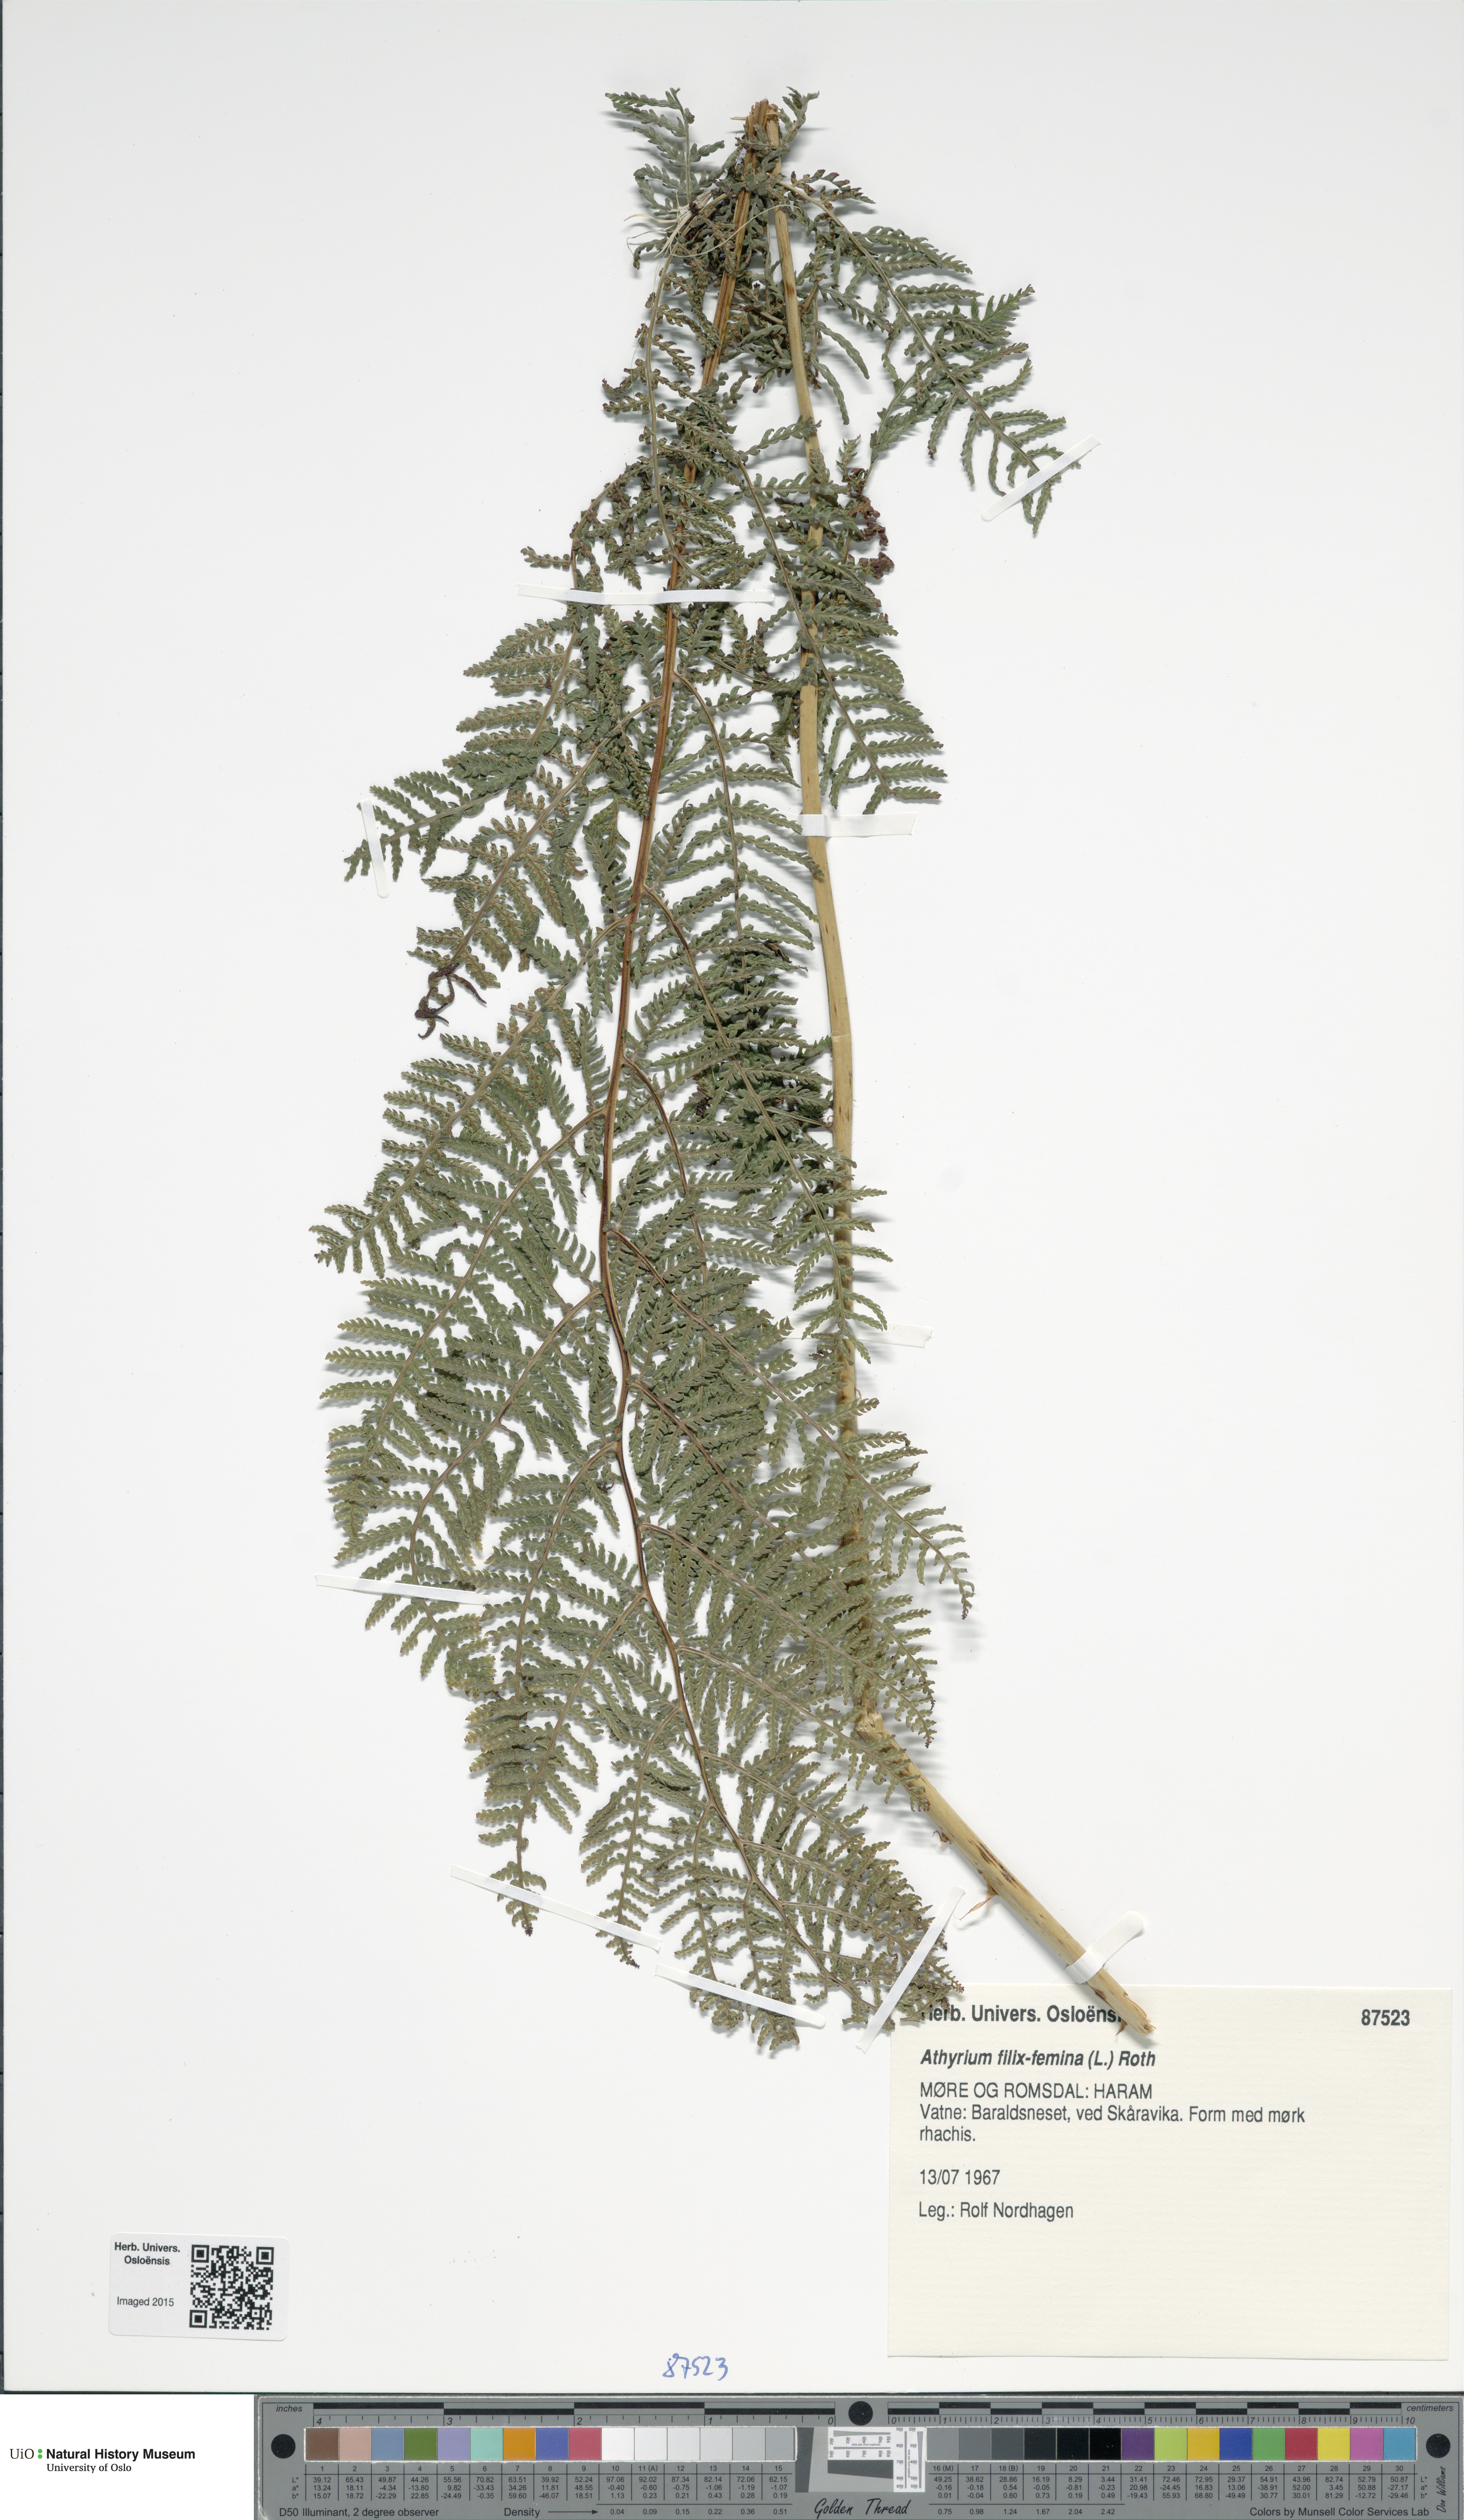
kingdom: Plantae
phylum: Tracheophyta
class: Polypodiopsida
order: Polypodiales
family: Athyriaceae
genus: Athyrium
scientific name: Athyrium filix-femina
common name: Lady fern
